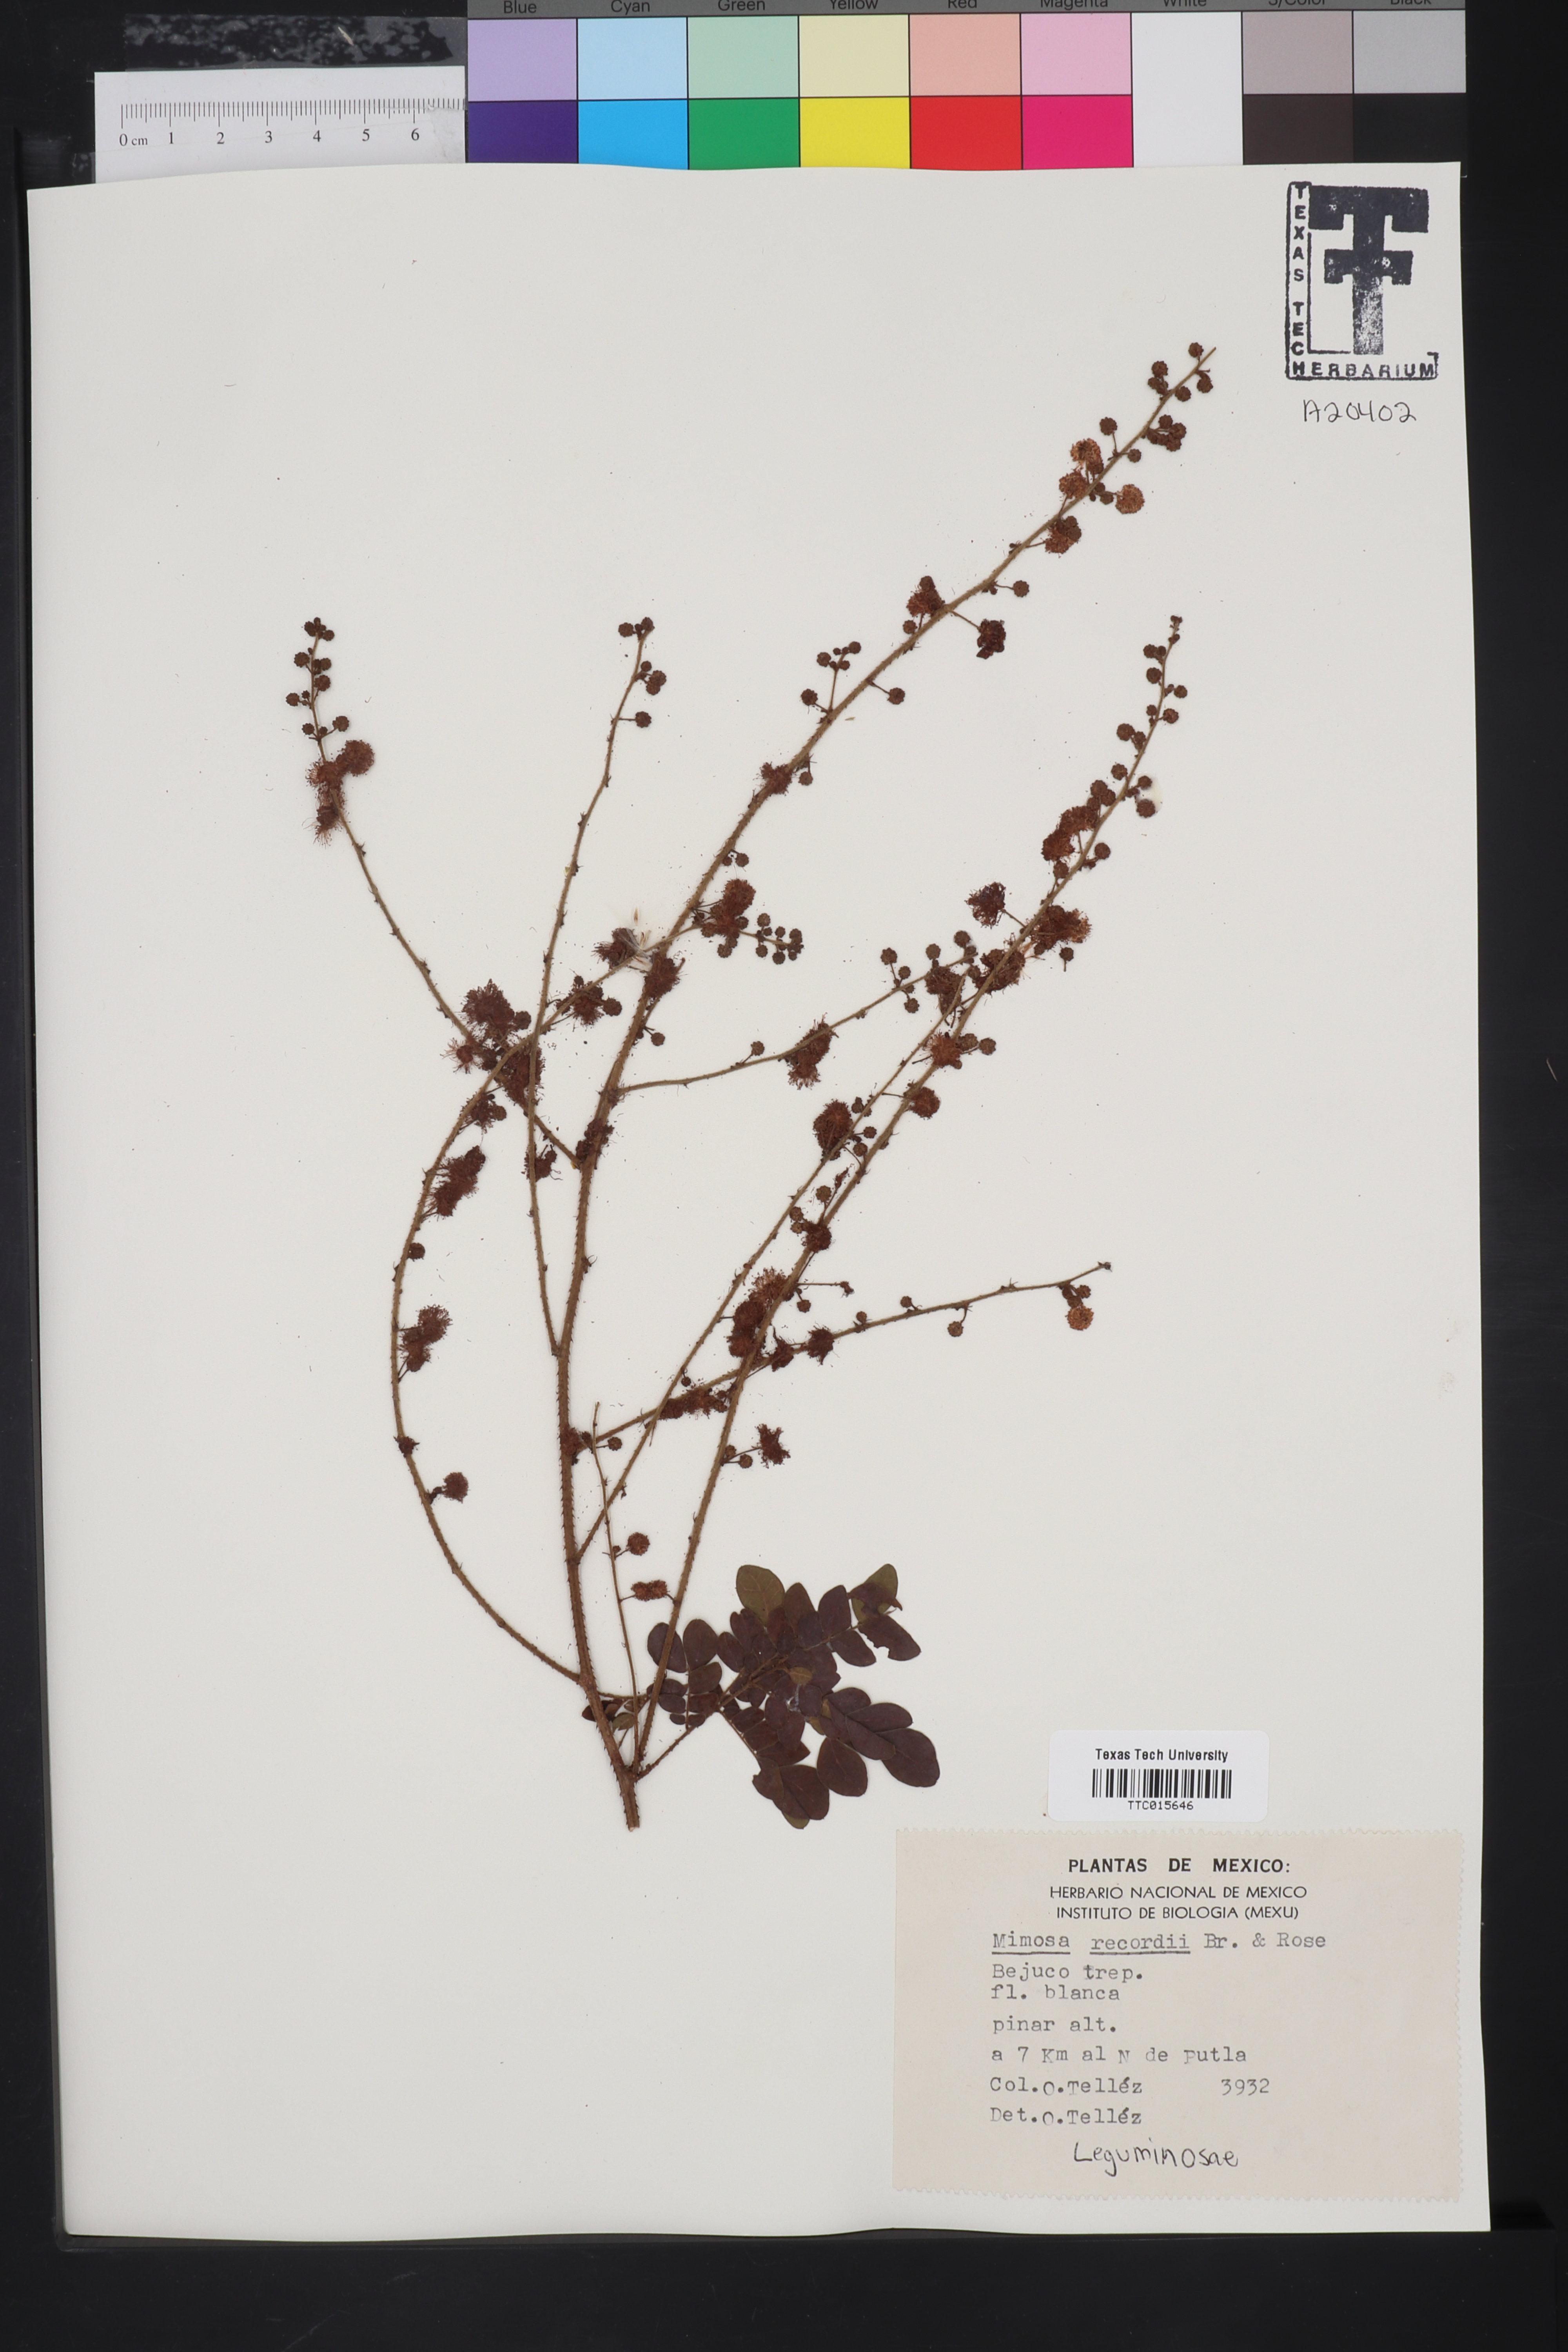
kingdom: Plantae
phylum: Tracheophyta
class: Magnoliopsida
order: Fabales
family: Fabaceae
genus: Mimosa
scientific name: Mimosa watsonii
